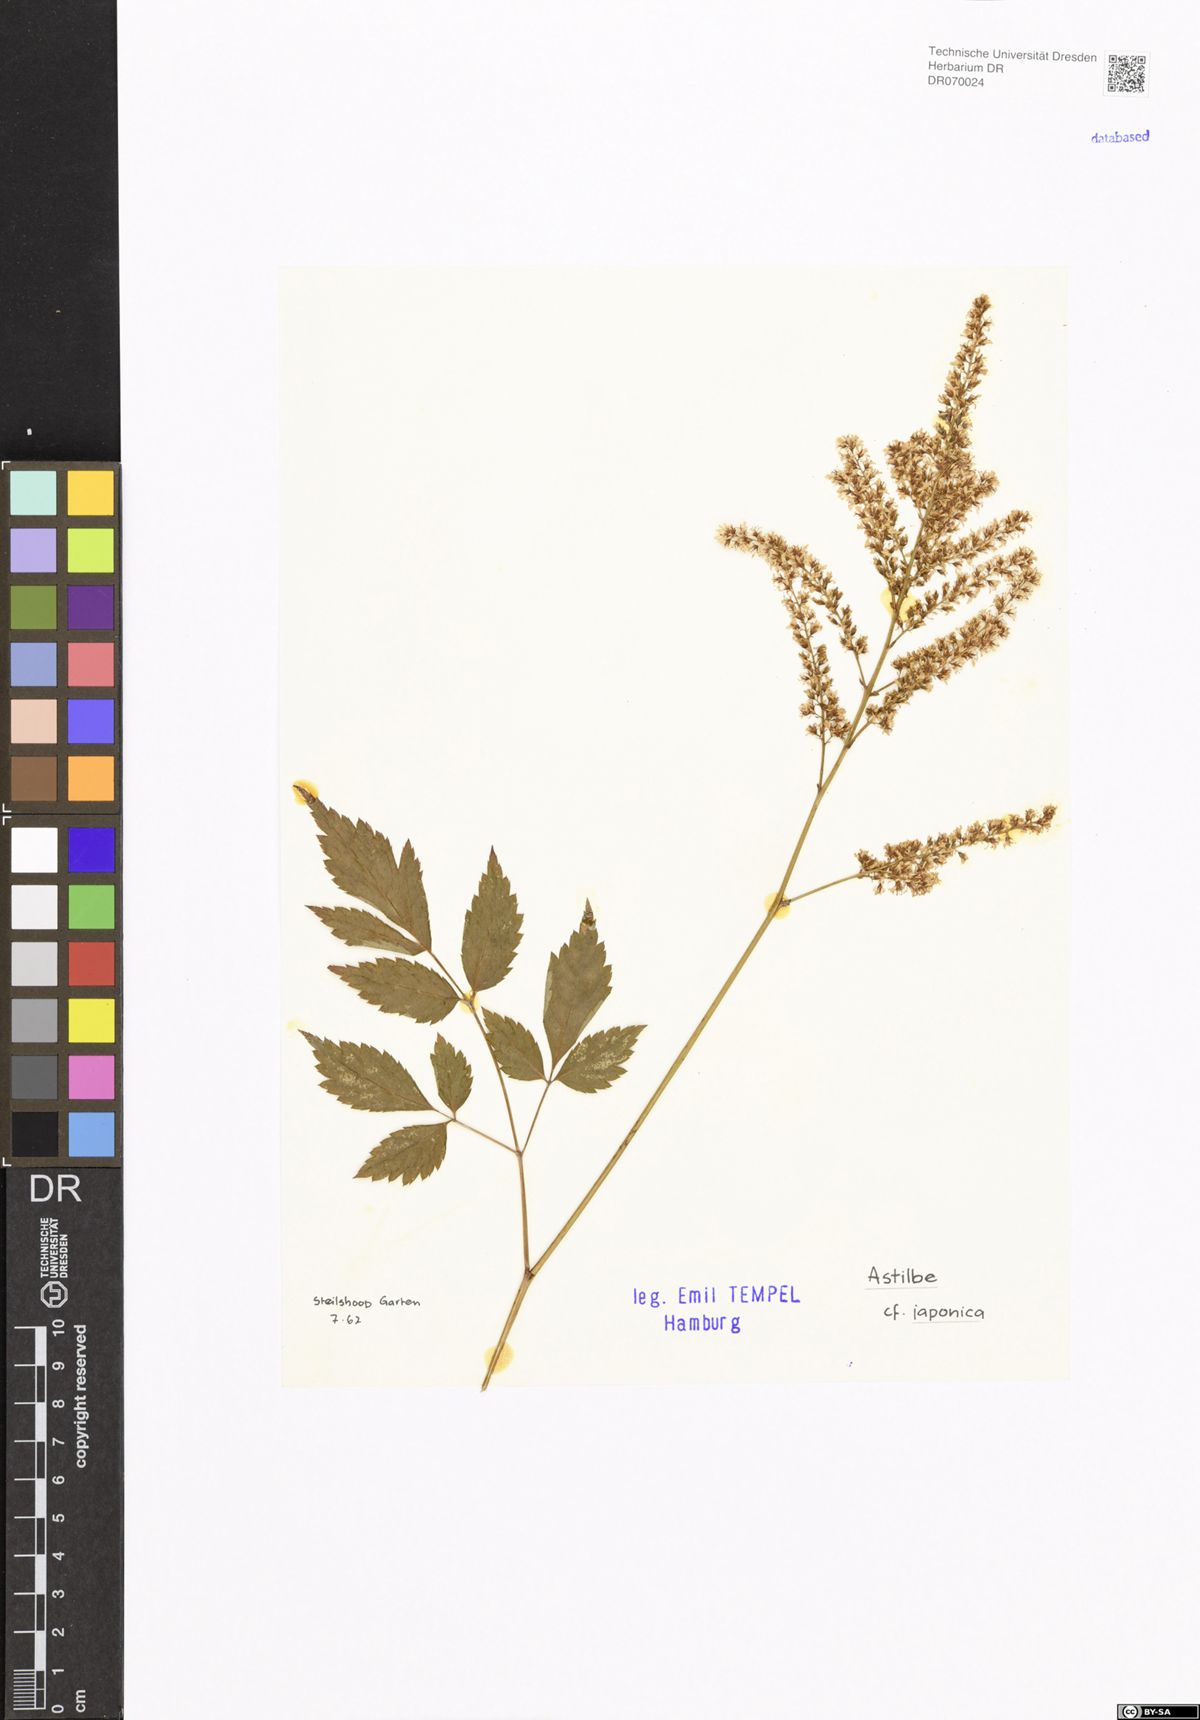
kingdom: Plantae
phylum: Tracheophyta
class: Magnoliopsida
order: Saxifragales
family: Saxifragaceae
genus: Astilbe
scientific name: Astilbe japonica
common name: False buck's-beard
